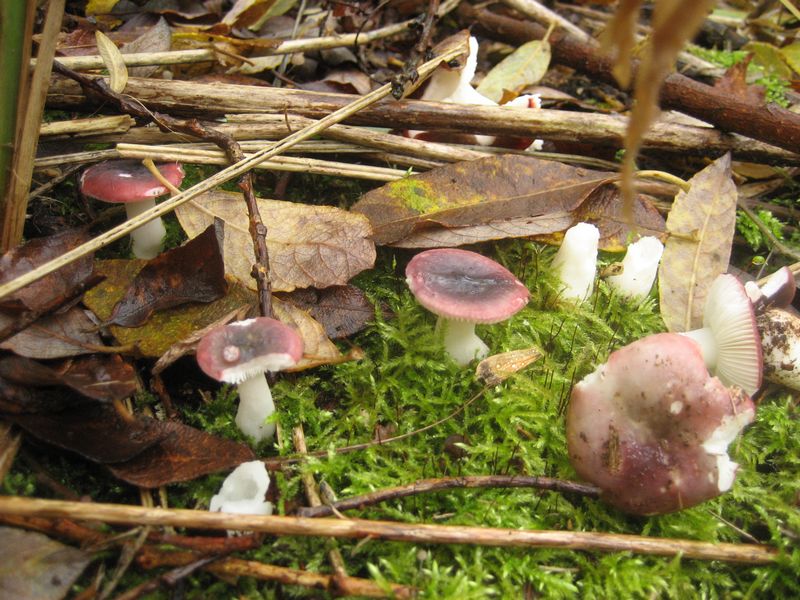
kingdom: Fungi
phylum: Basidiomycota
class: Agaricomycetes
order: Russulales
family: Russulaceae
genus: Russula
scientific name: Russula laccata
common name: klit-skørhat
